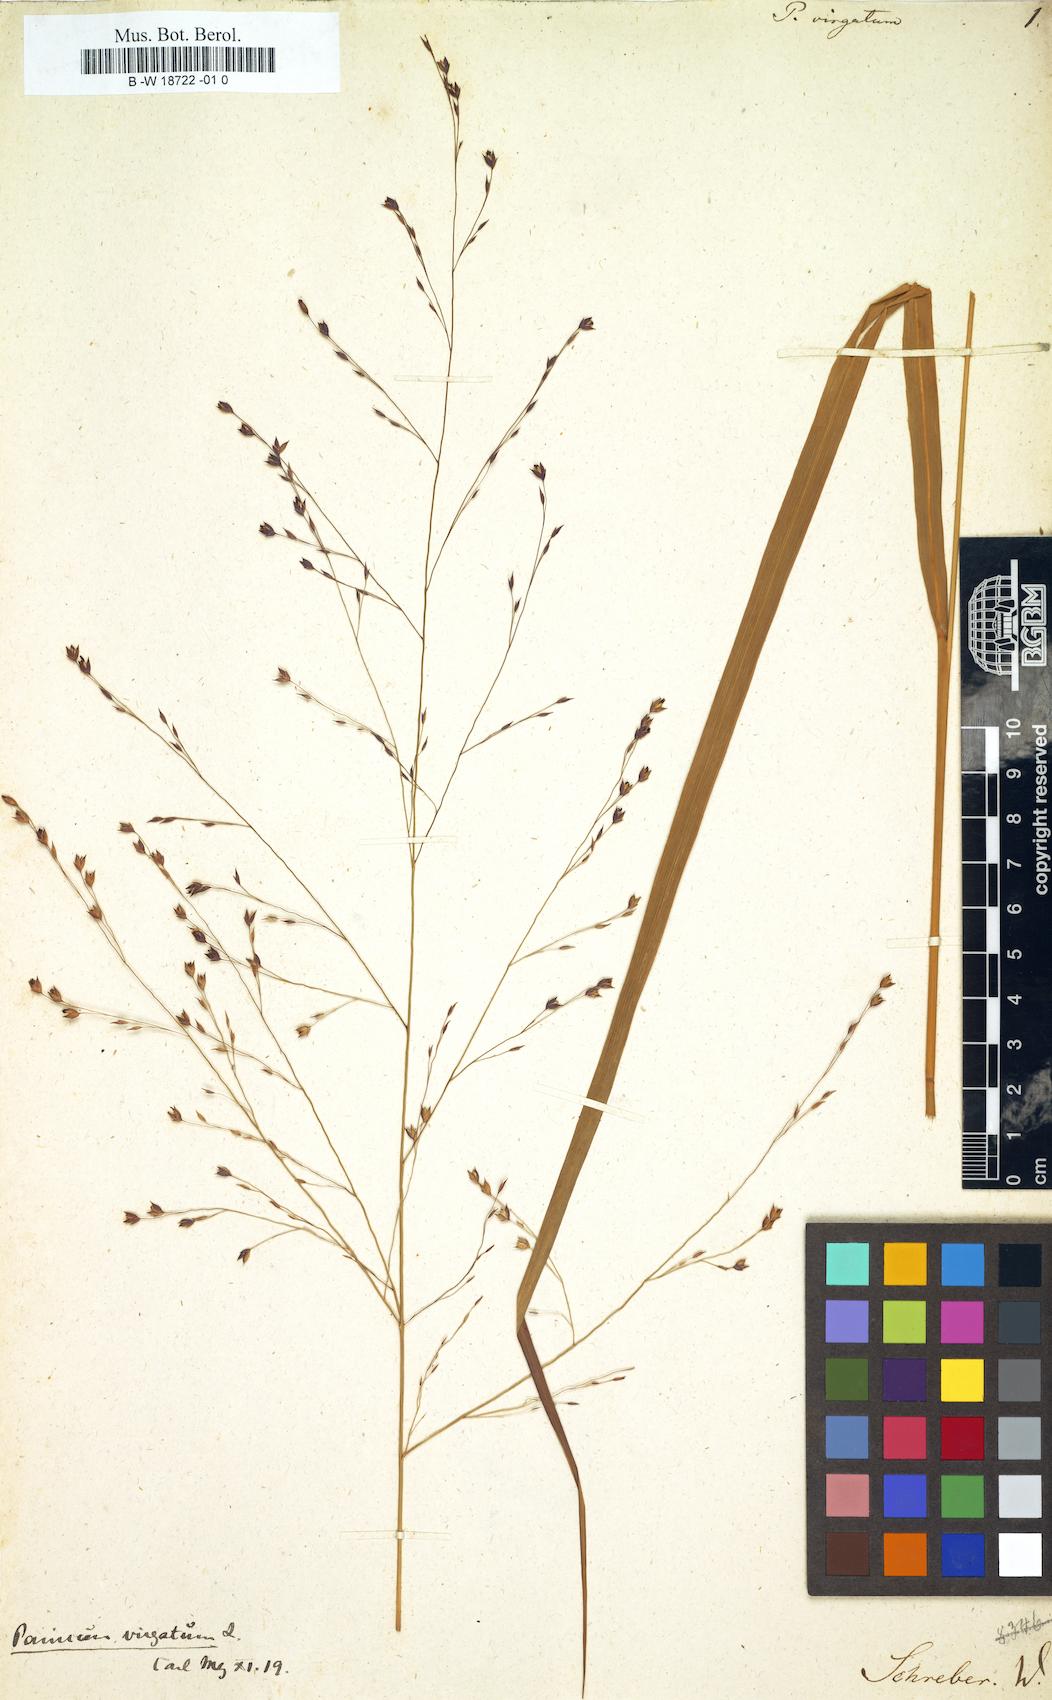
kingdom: Plantae
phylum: Tracheophyta
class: Liliopsida
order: Poales
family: Poaceae
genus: Panicum
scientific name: Panicum virgatum
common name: Switchgrass
